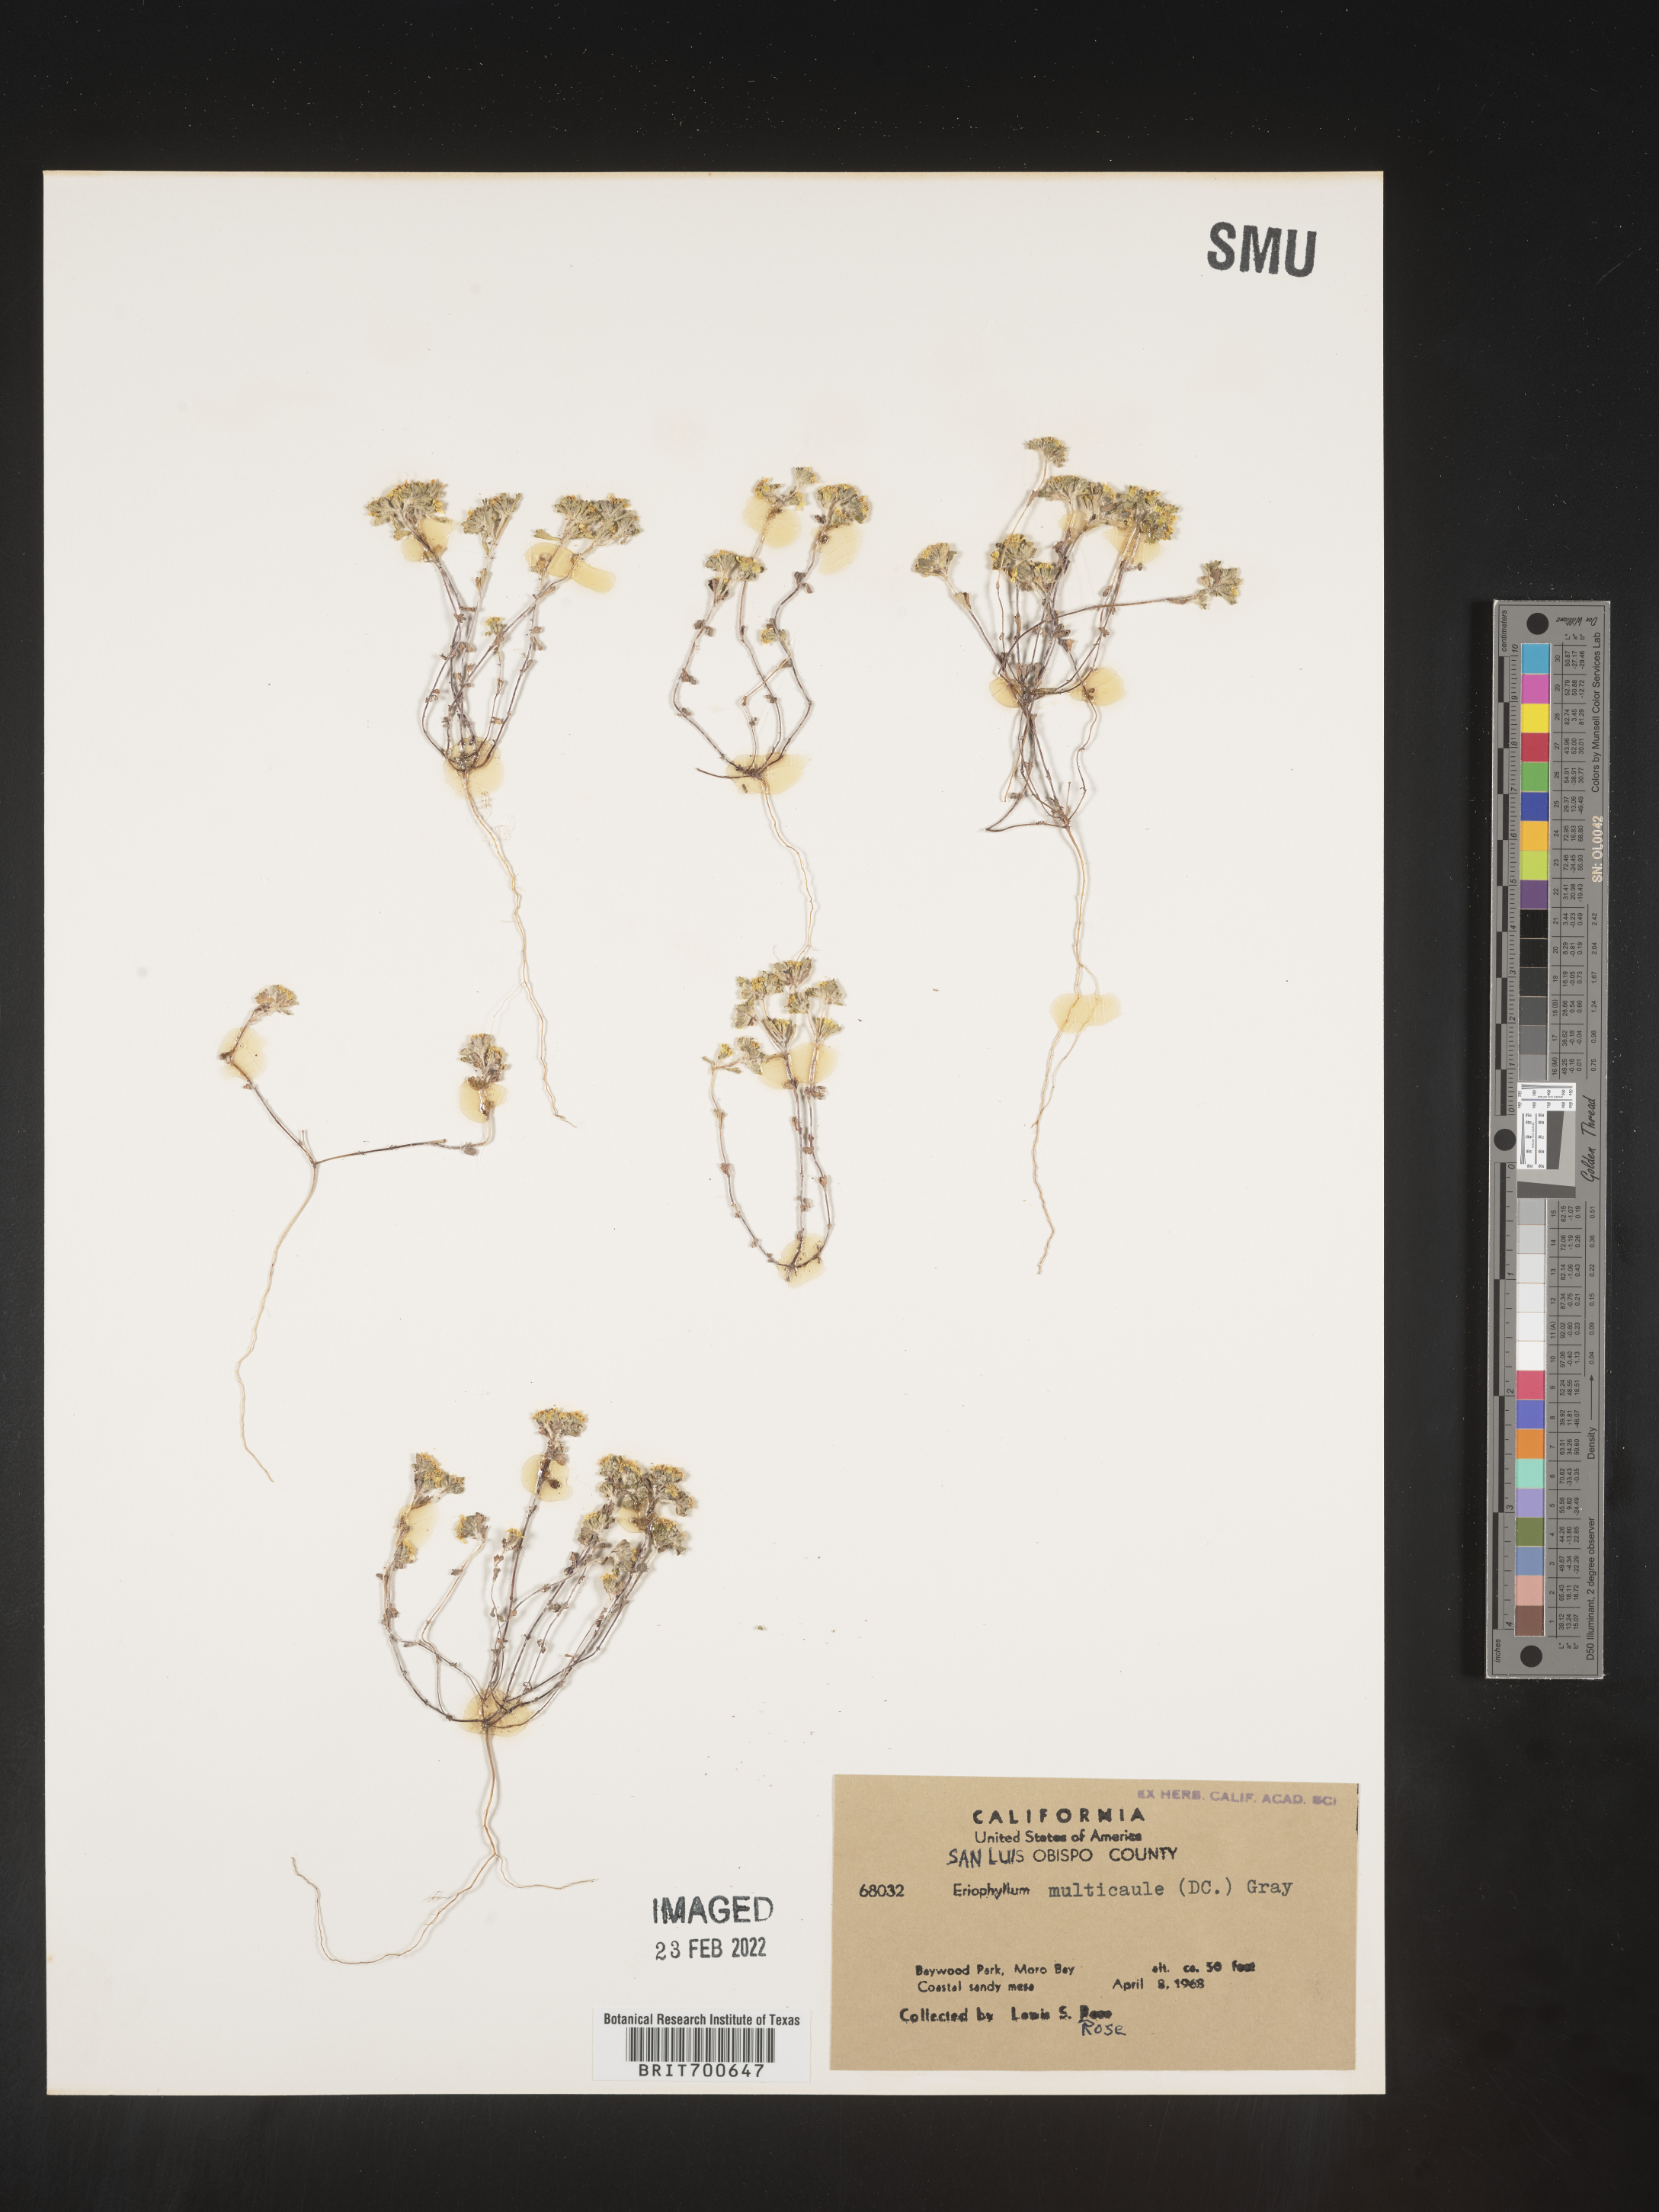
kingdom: Plantae
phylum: Tracheophyta
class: Magnoliopsida
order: Asterales
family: Asteraceae
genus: Eriophyllum
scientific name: Eriophyllum multicaule
